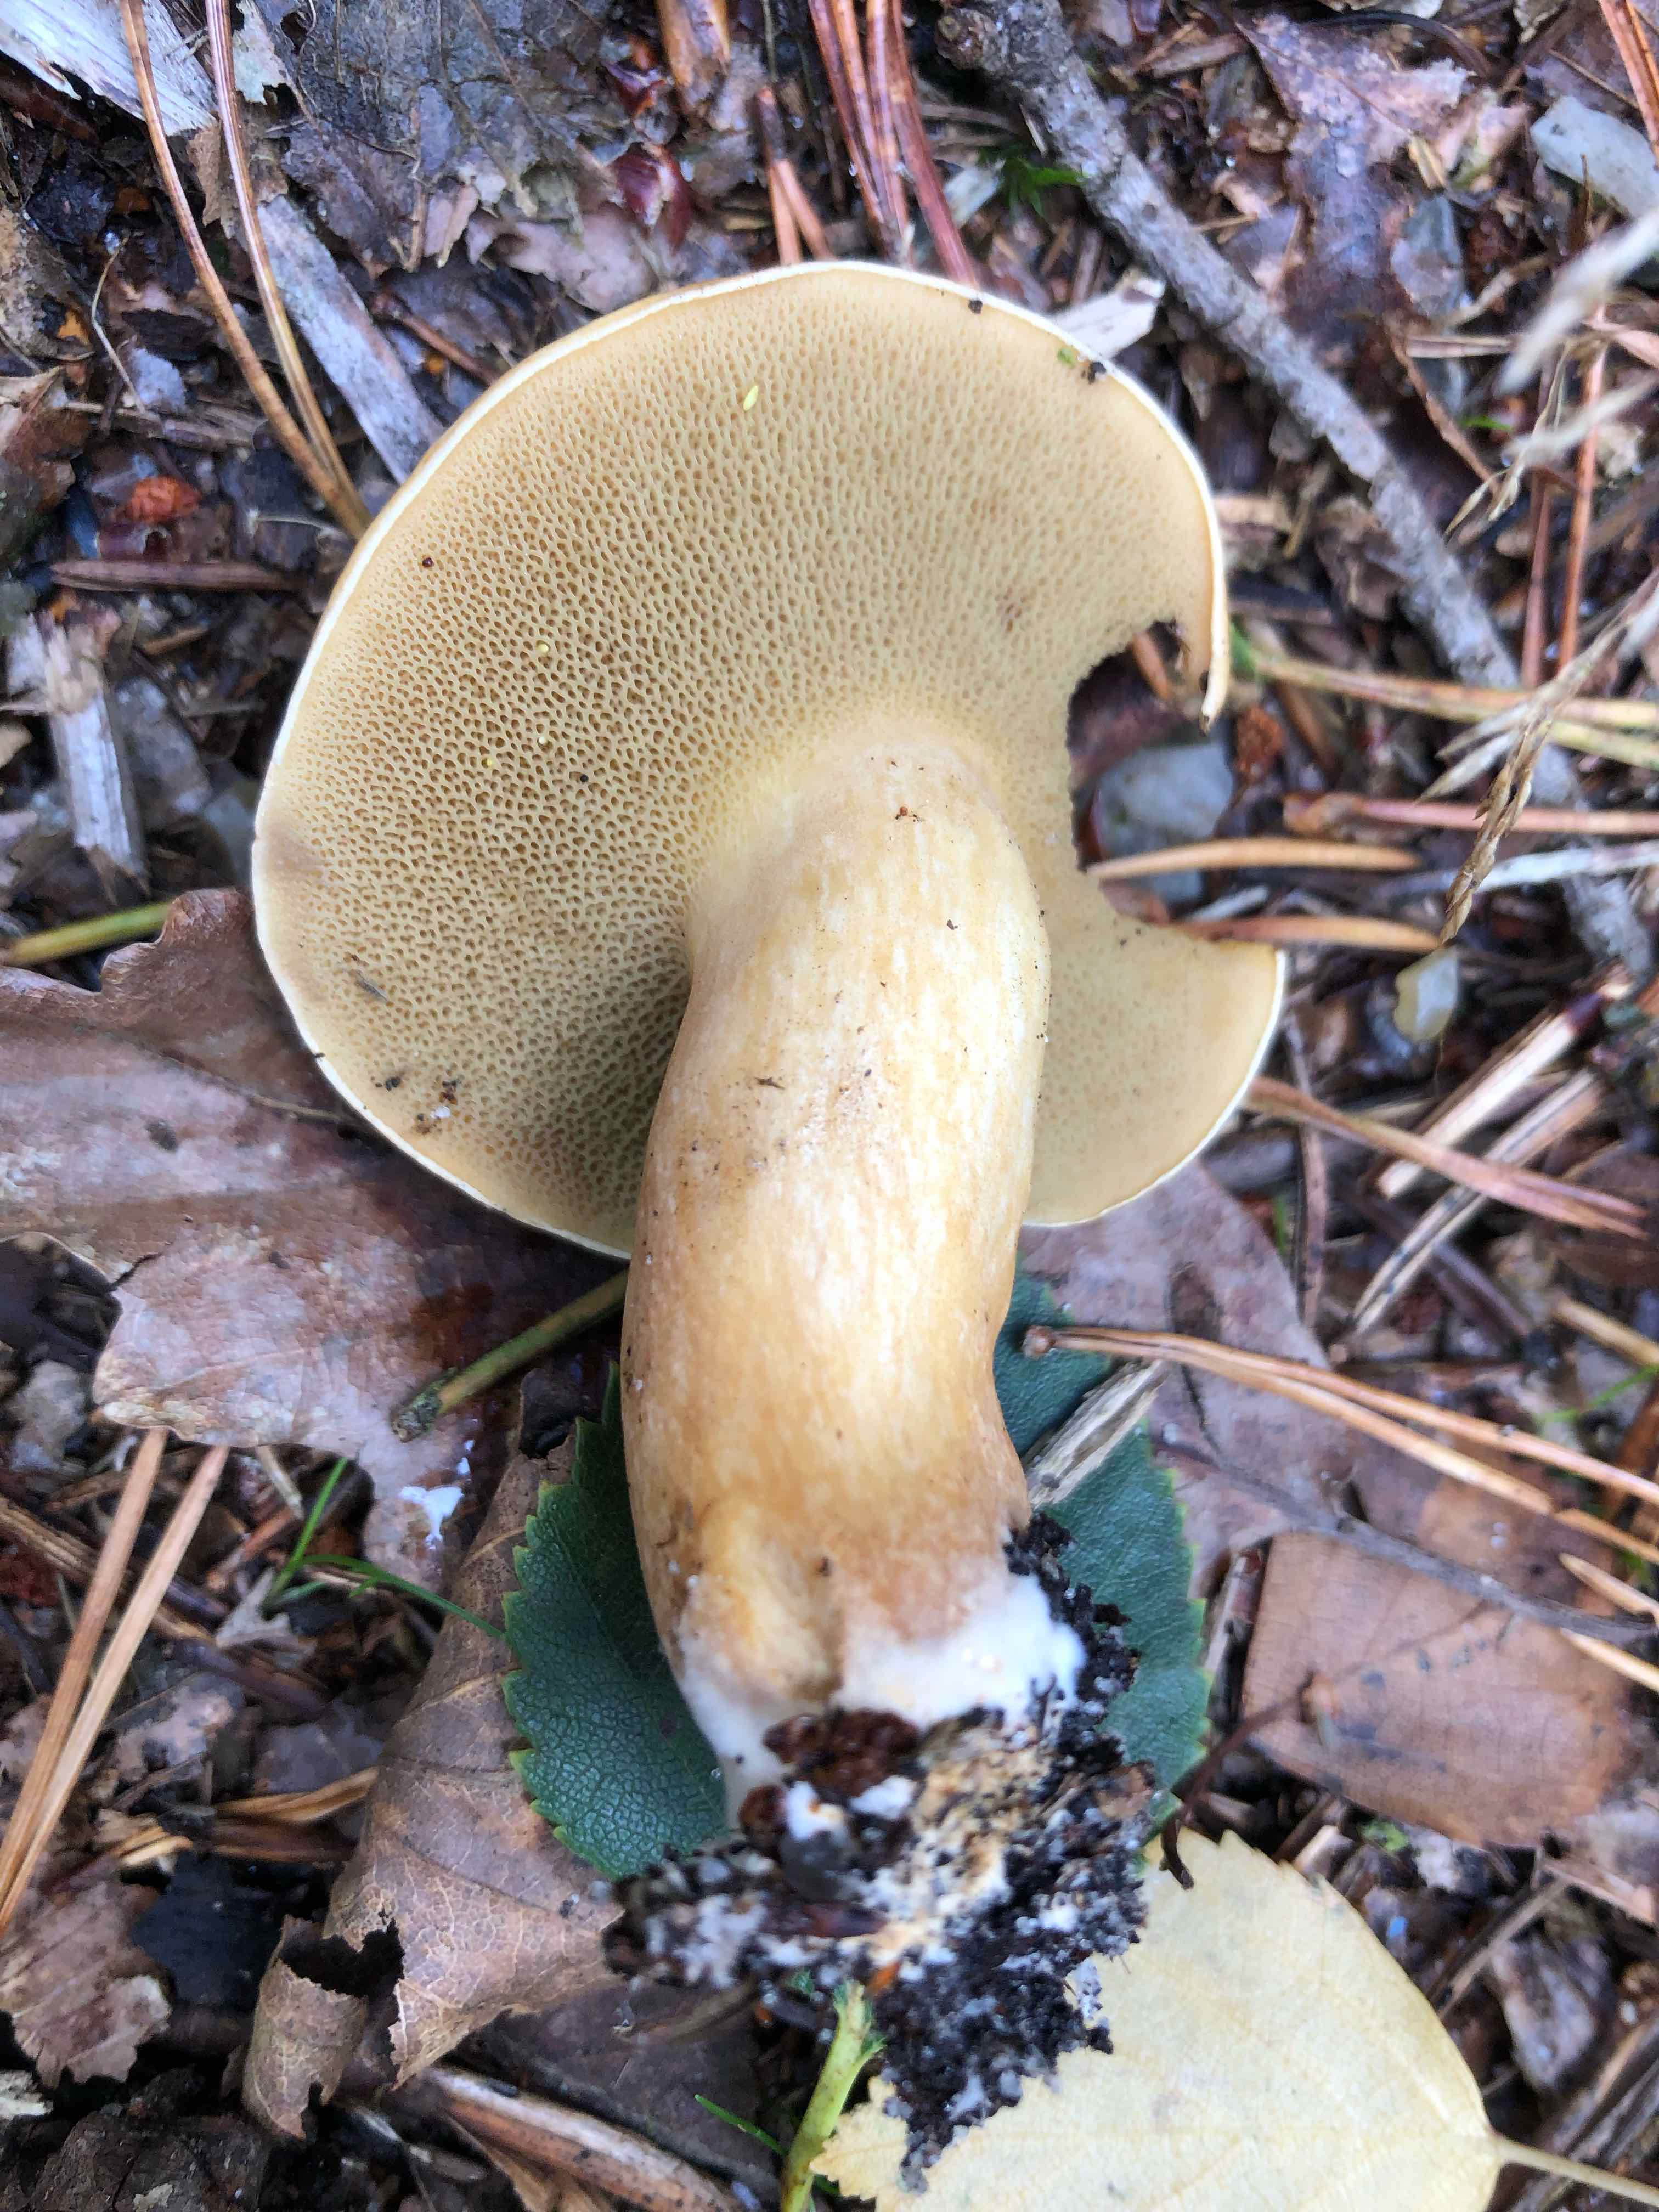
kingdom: Fungi
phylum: Basidiomycota
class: Agaricomycetes
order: Boletales
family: Suillaceae
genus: Suillus
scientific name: Suillus bovinus
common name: grovporet slimrørhat
